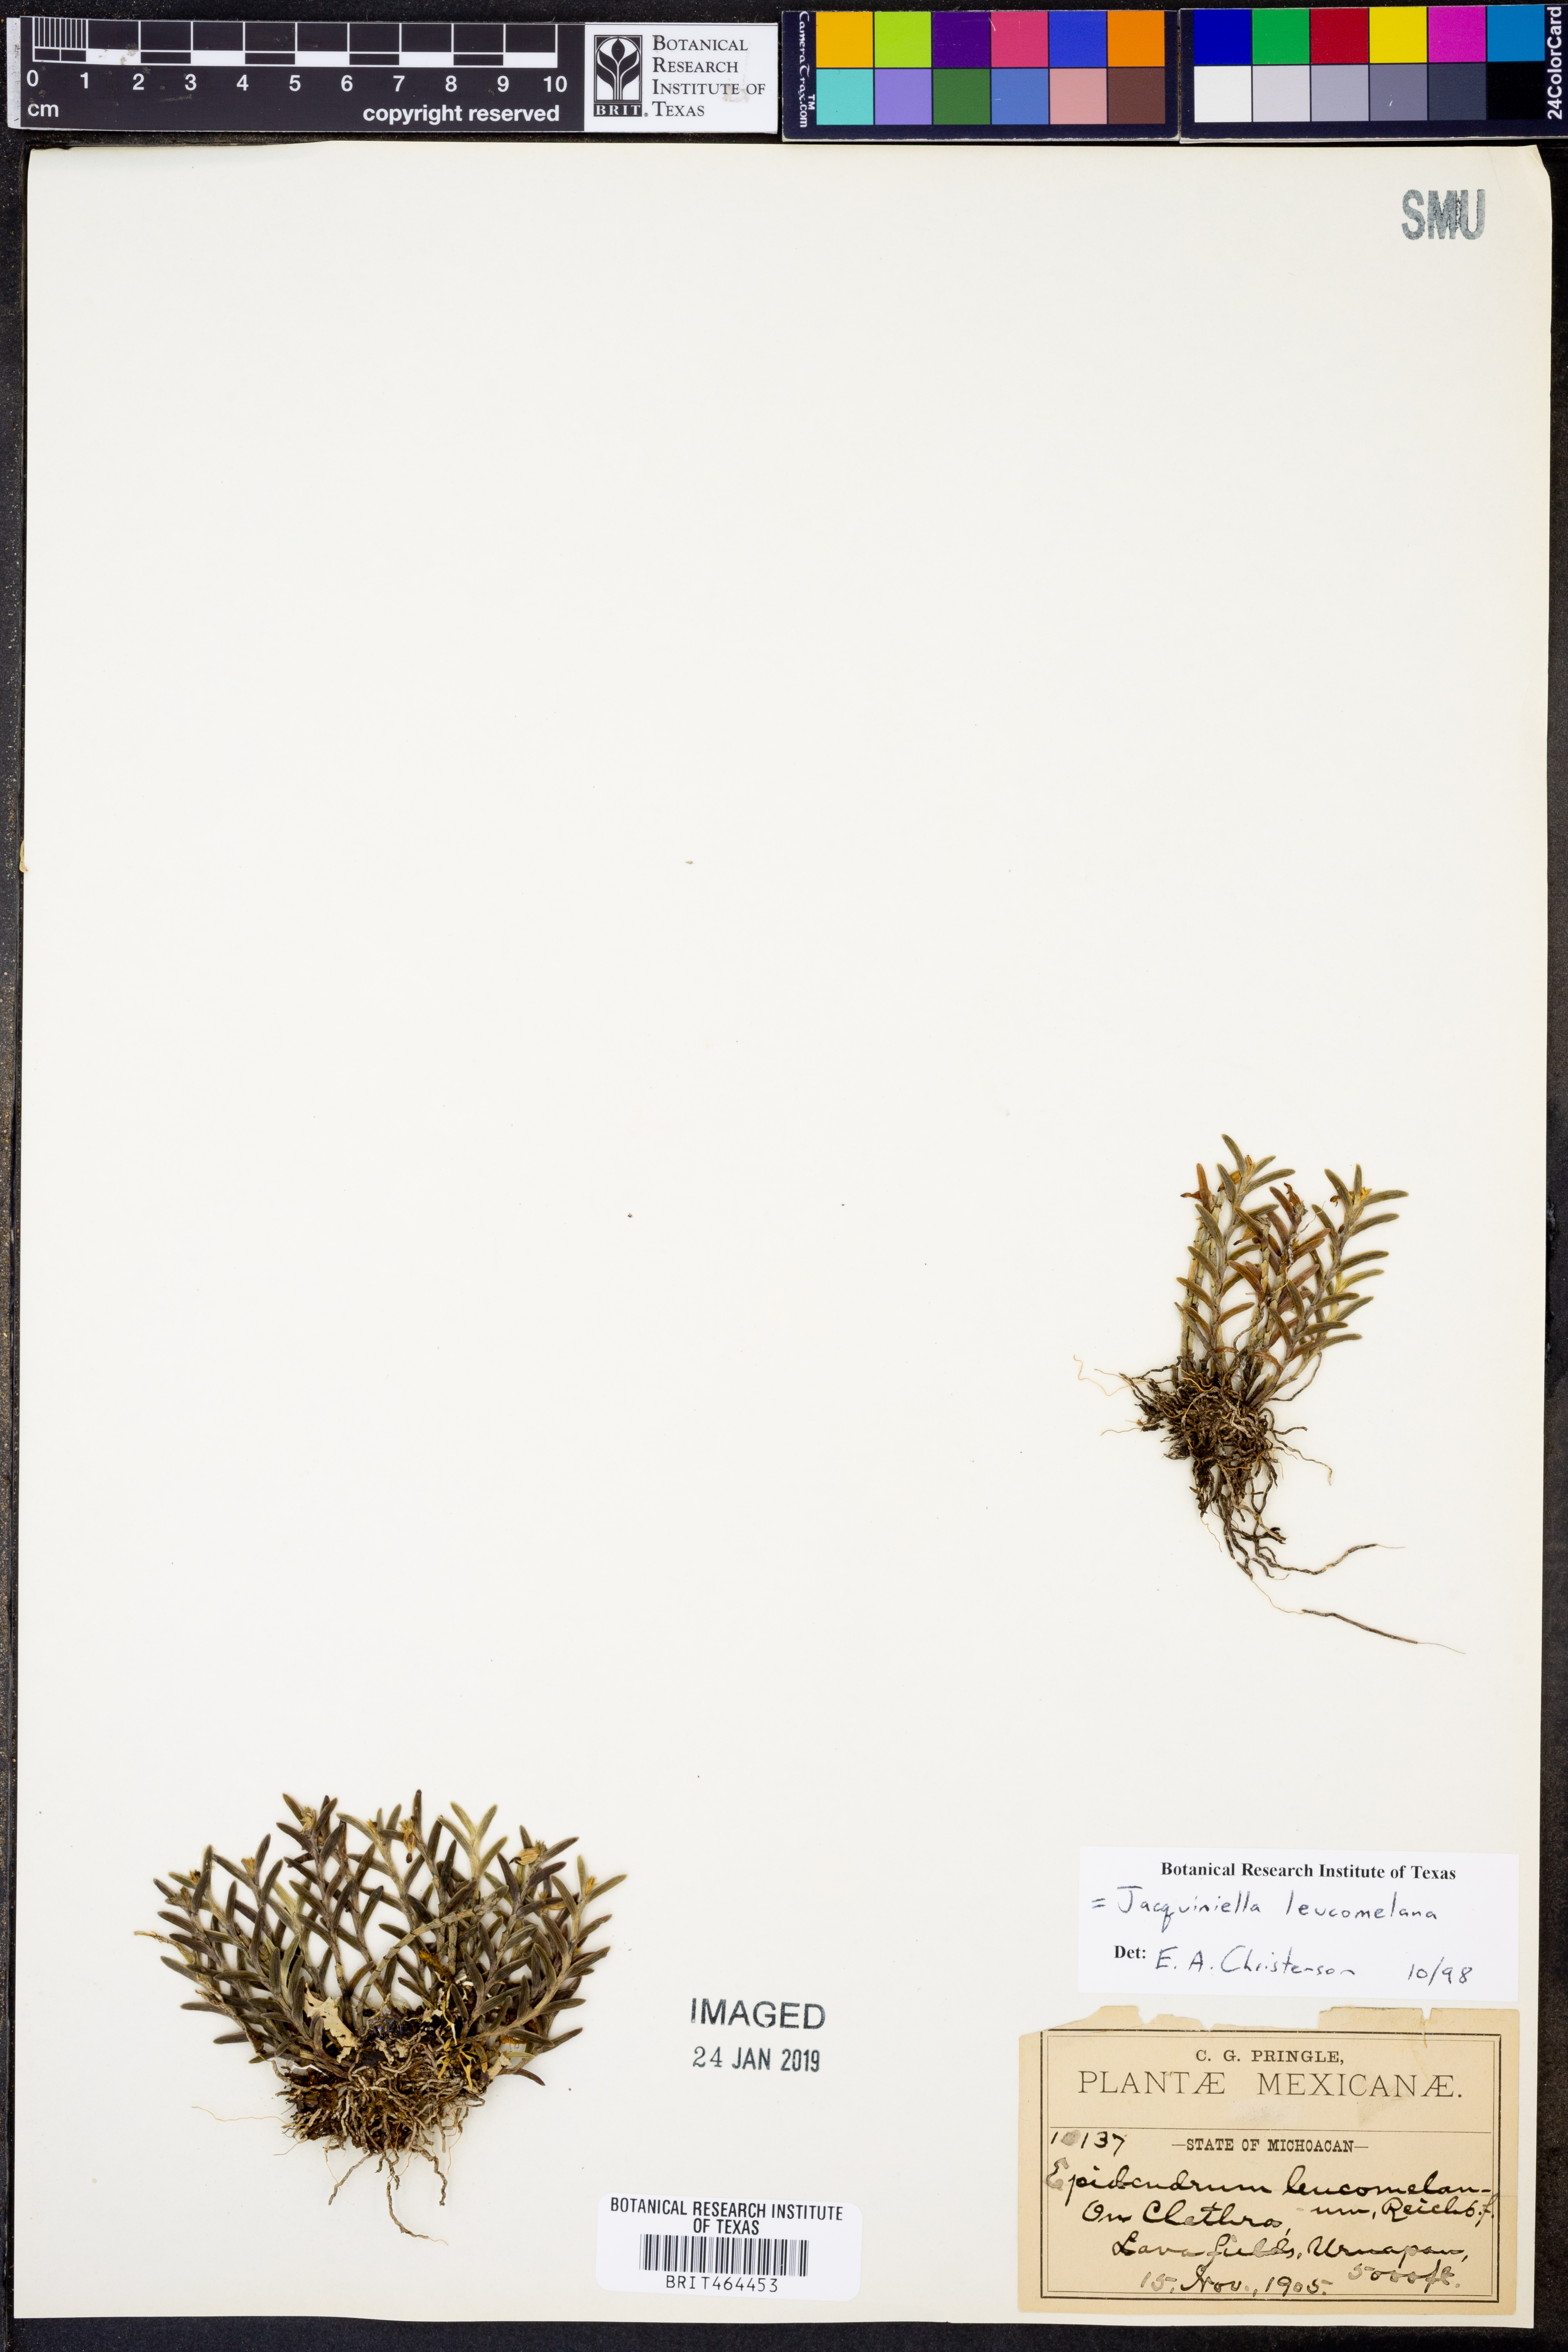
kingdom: Plantae
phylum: Tracheophyta
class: Liliopsida
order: Asparagales
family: Orchidaceae
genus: Jacquiniella
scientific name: Jacquiniella leucomelana
